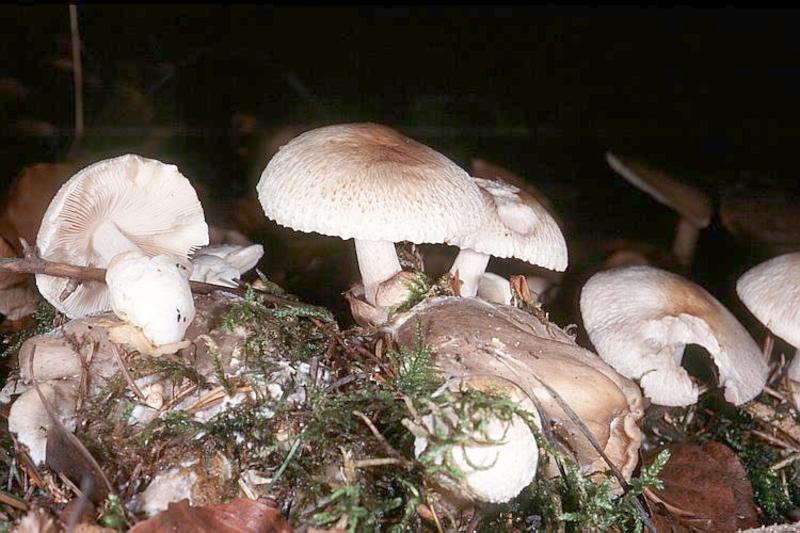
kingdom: Fungi
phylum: Basidiomycota
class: Agaricomycetes
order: Agaricales
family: Tricholomataceae
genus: Clitocybe
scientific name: Clitocybe nebularis
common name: Clouded agaric
